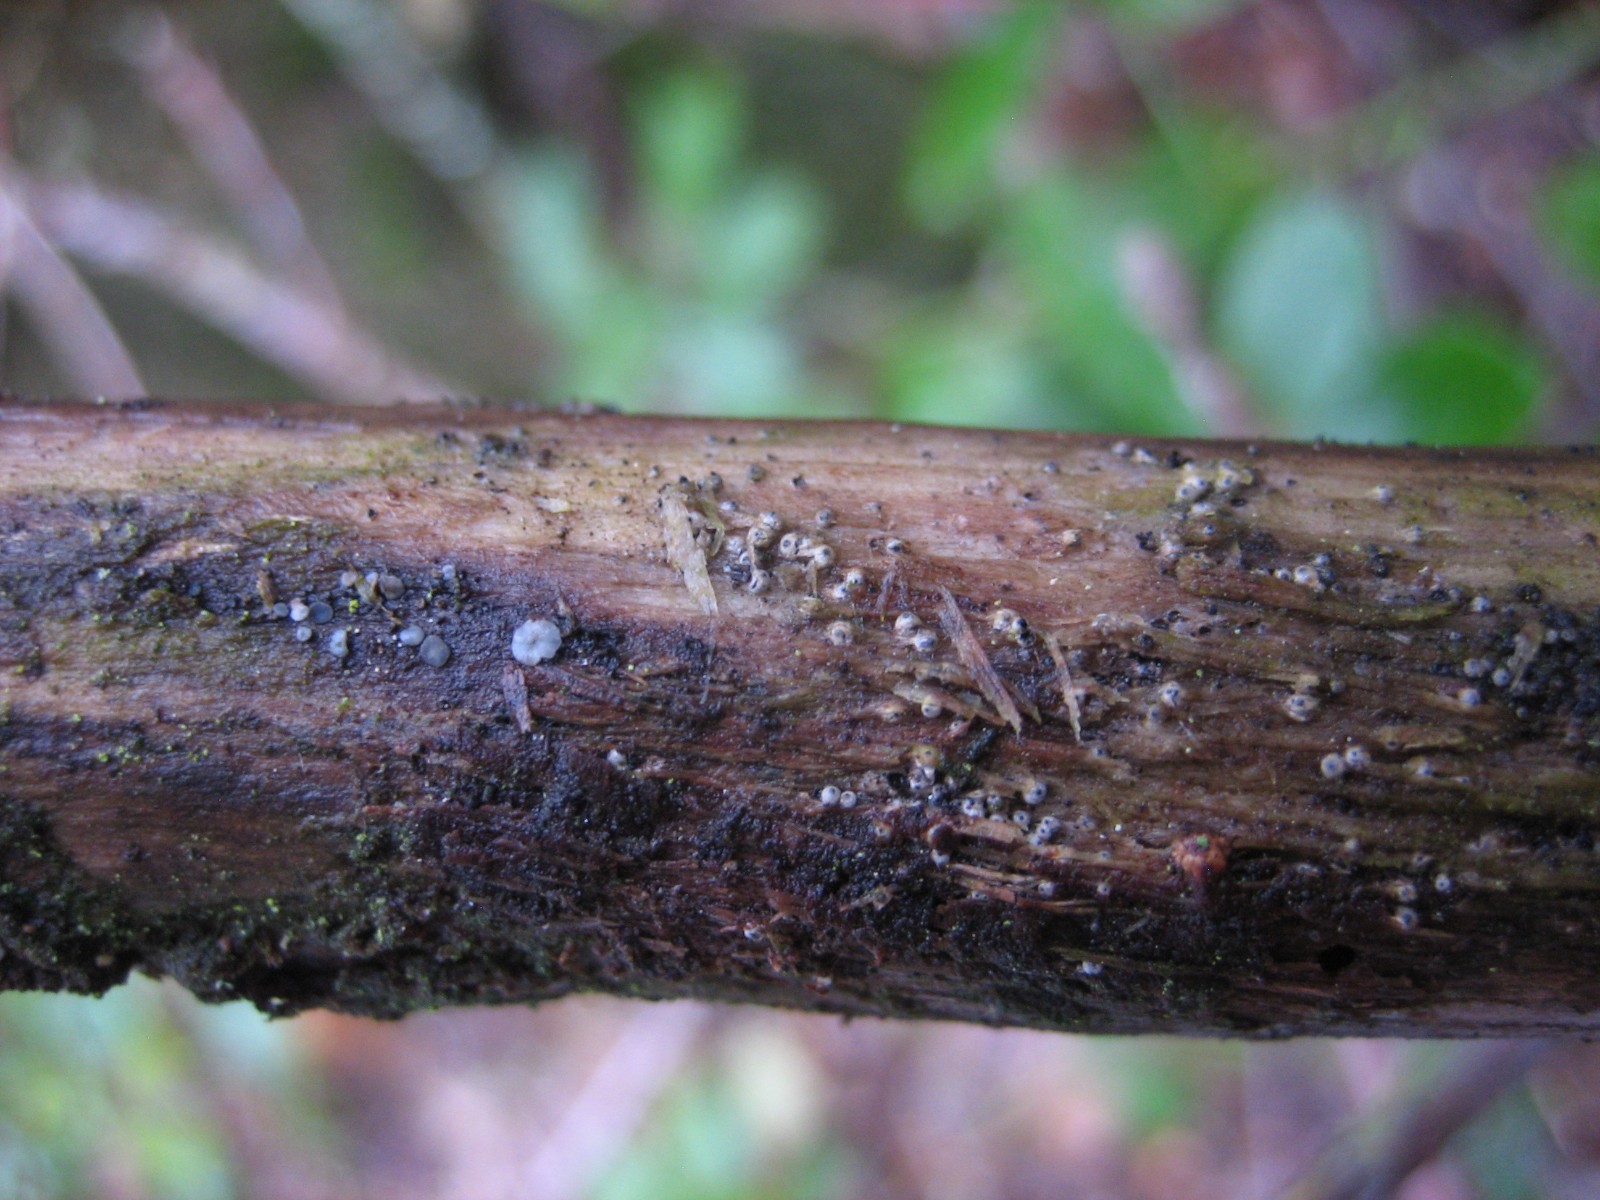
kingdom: Fungi
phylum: Ascomycota
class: Sordariomycetes
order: Sordariales
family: Lasiosphaeriaceae
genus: Lasiosphaeria
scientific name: Lasiosphaeria ovina
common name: fåre-kernesvamp
